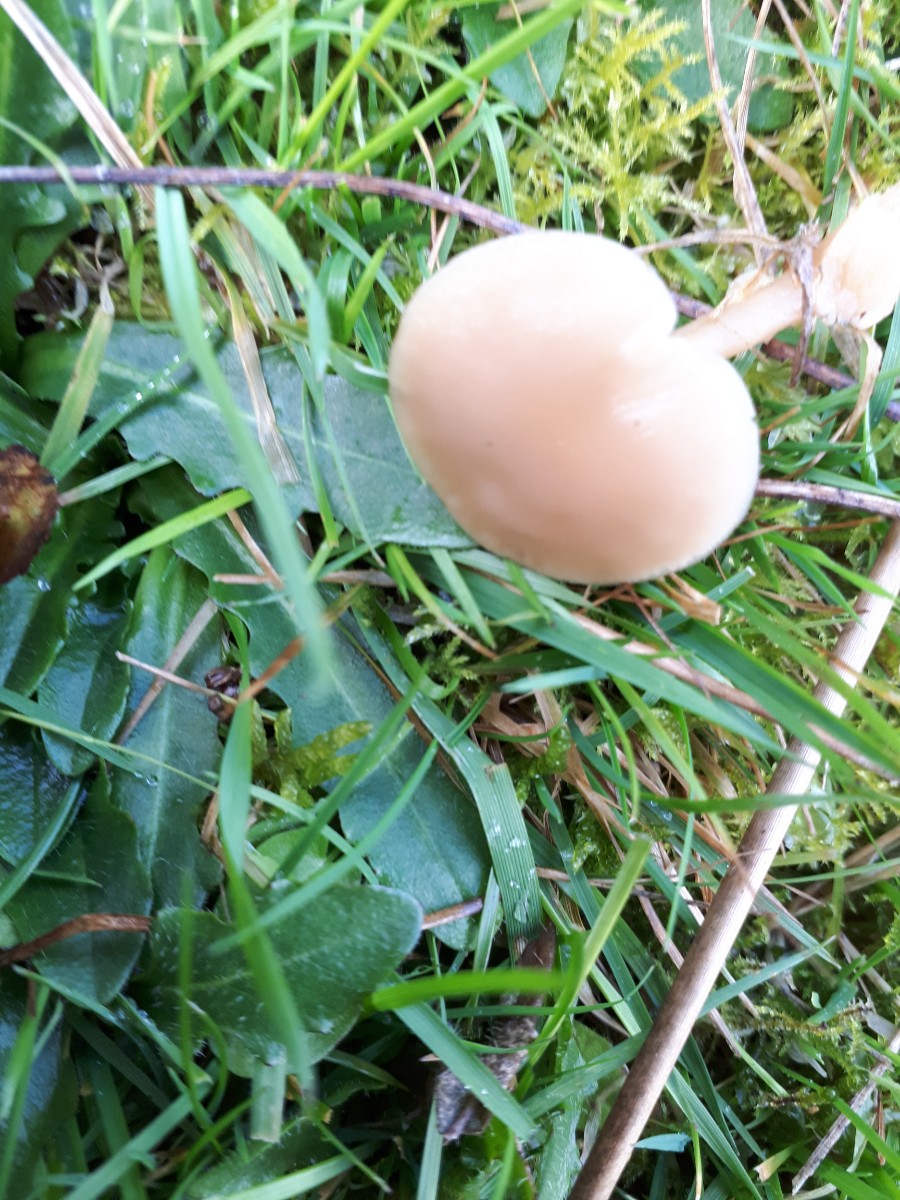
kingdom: Fungi
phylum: Basidiomycota
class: Agaricomycetes
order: Agaricales
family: Tricholomataceae
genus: Clitocybe
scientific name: Clitocybe fragrans
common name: vellugtende tragthat
